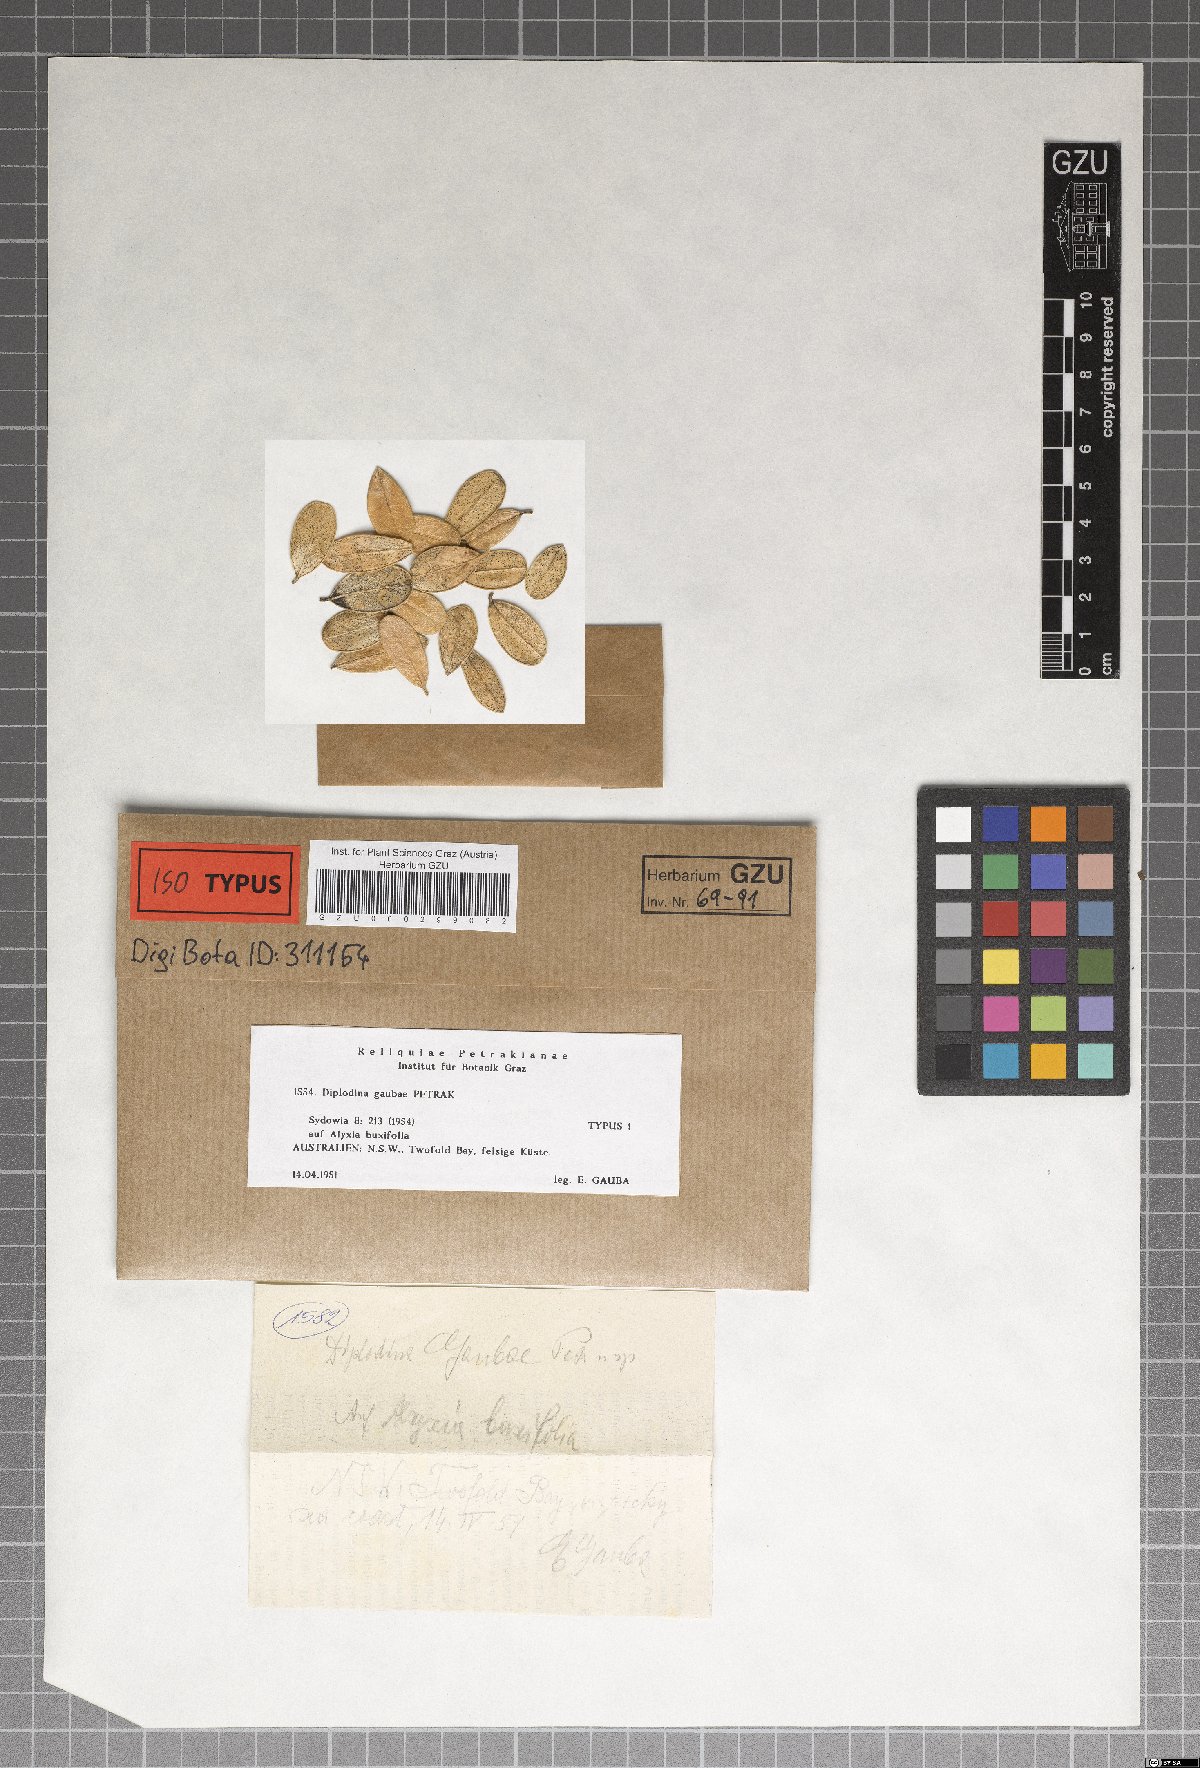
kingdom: Fungi
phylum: Ascomycota
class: Sordariomycetes
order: Diaporthales
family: Gnomoniaceae
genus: Diplodina
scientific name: Diplodina gaubae
